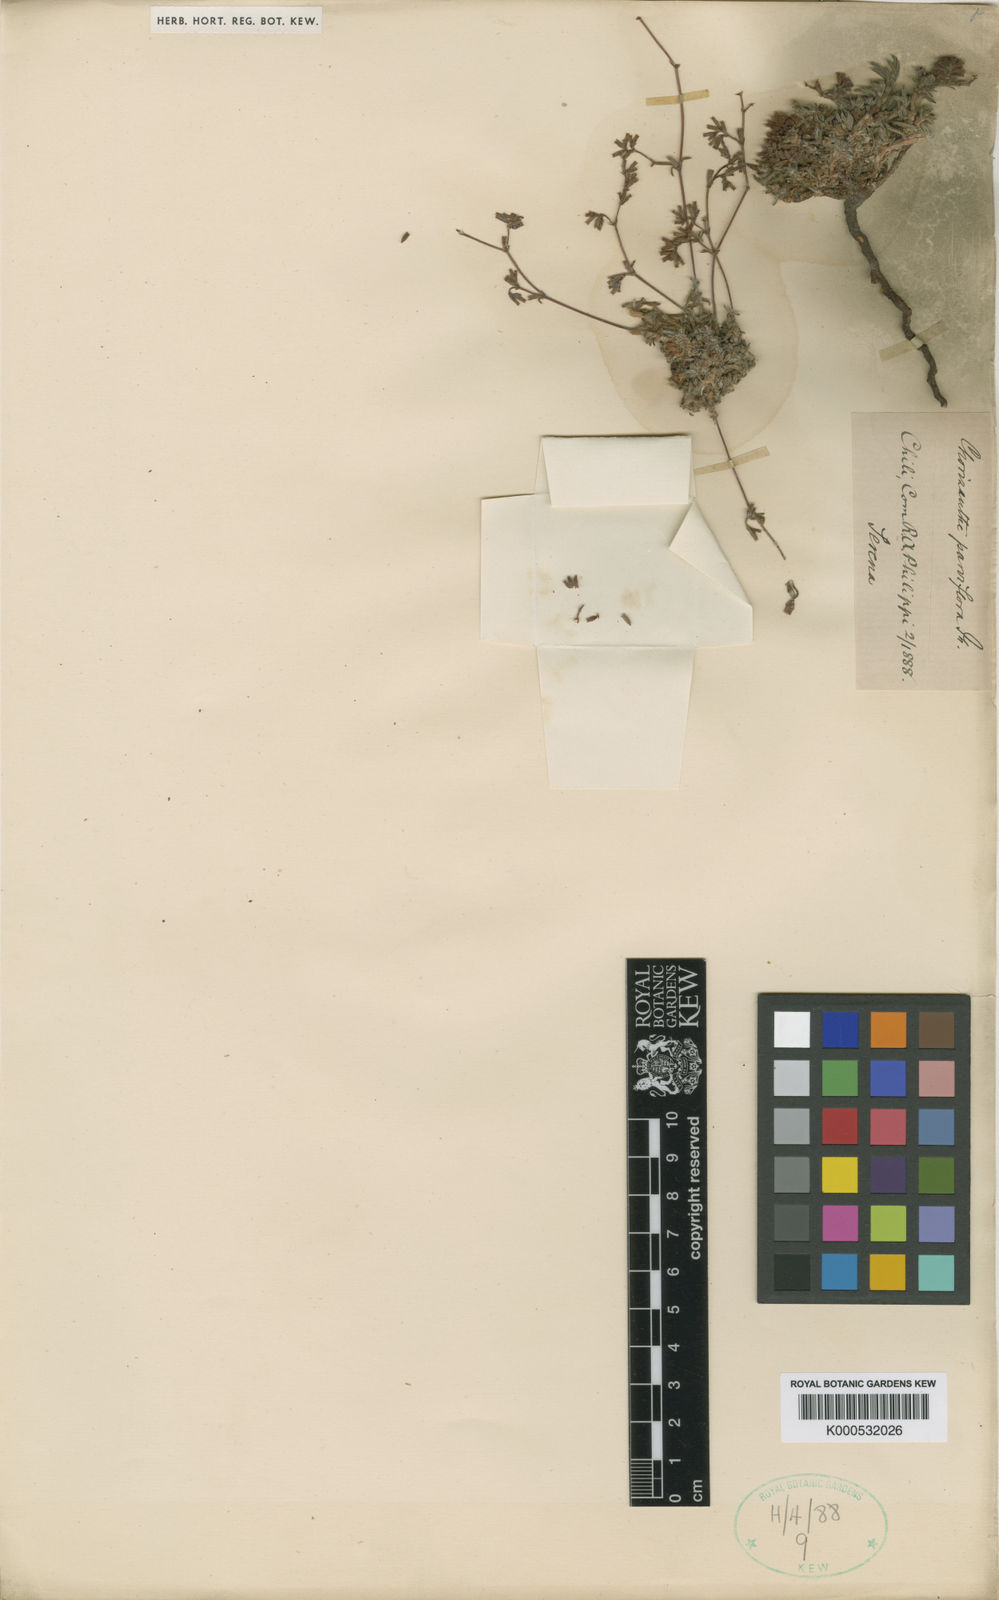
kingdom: Plantae
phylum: Tracheophyta
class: Magnoliopsida
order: Caryophyllales
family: Polygonaceae
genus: Chorizanthe
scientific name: Chorizanthe dasyantha
